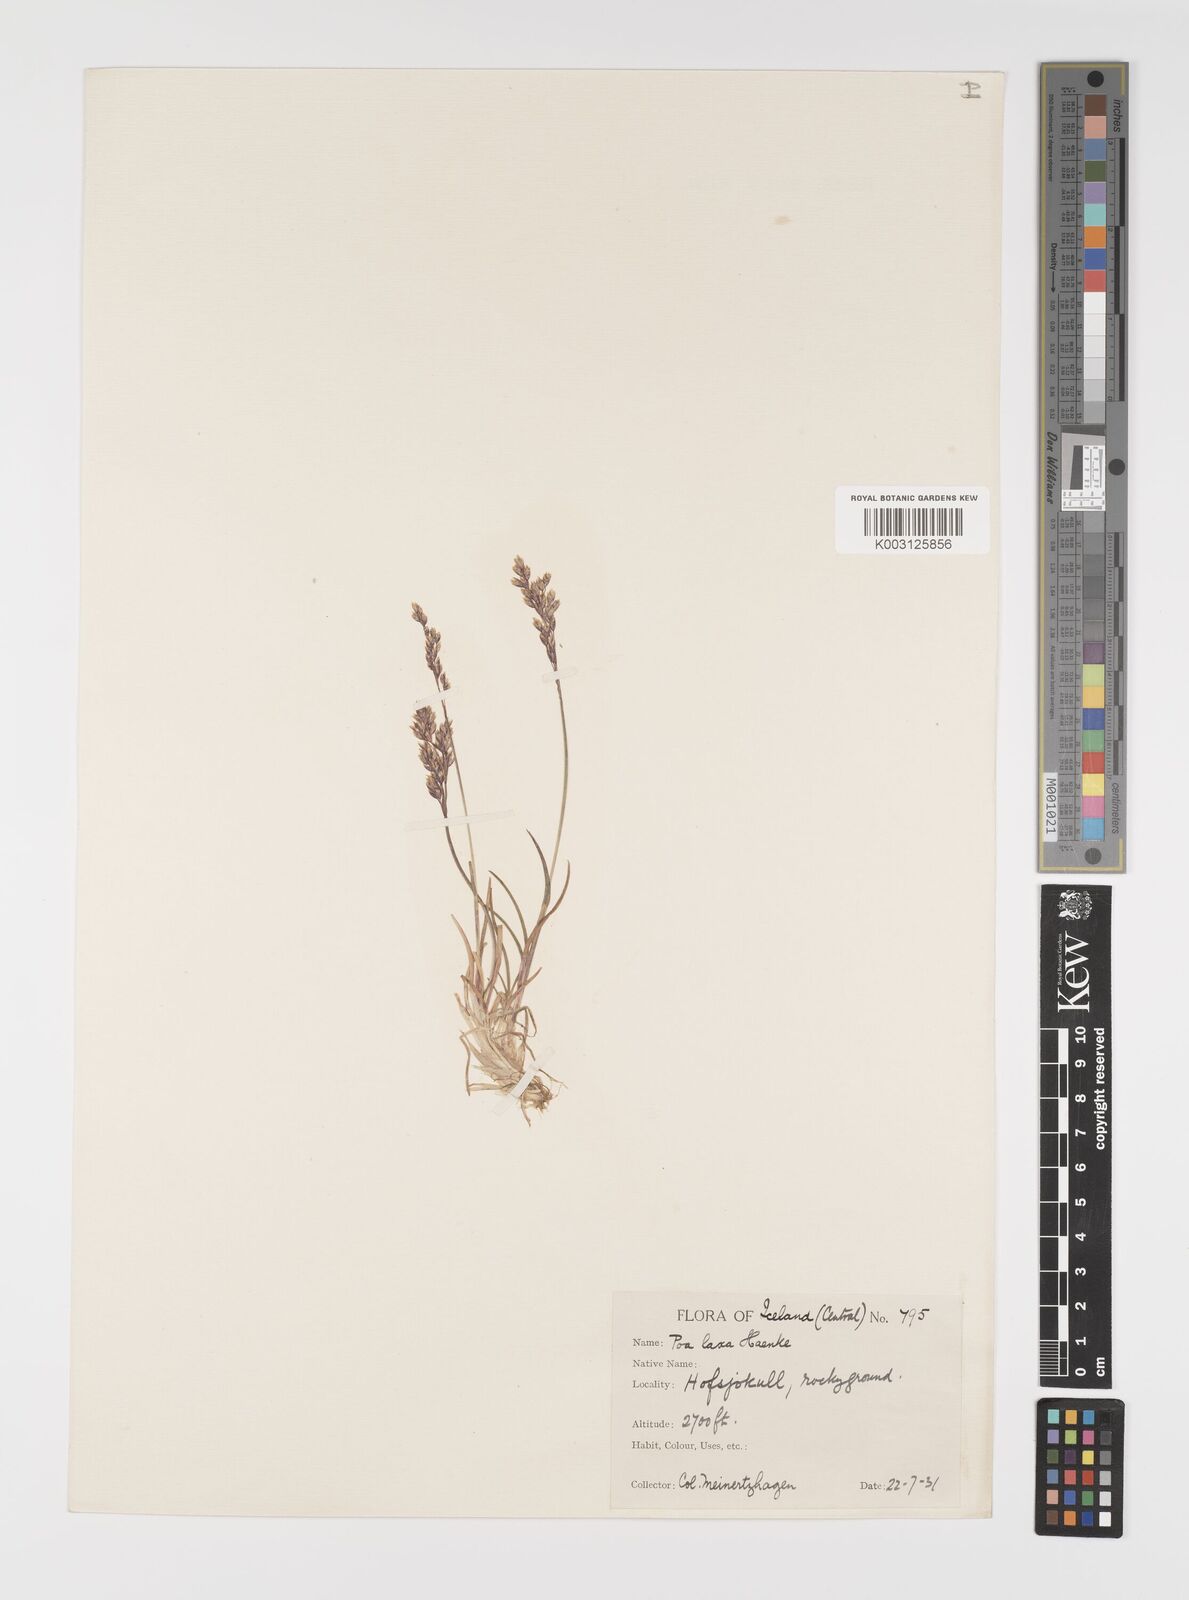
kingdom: Plantae
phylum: Tracheophyta
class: Liliopsida
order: Poales
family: Poaceae
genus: Eragrostis
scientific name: Eragrostis cilianensis
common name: Stinkgrass
